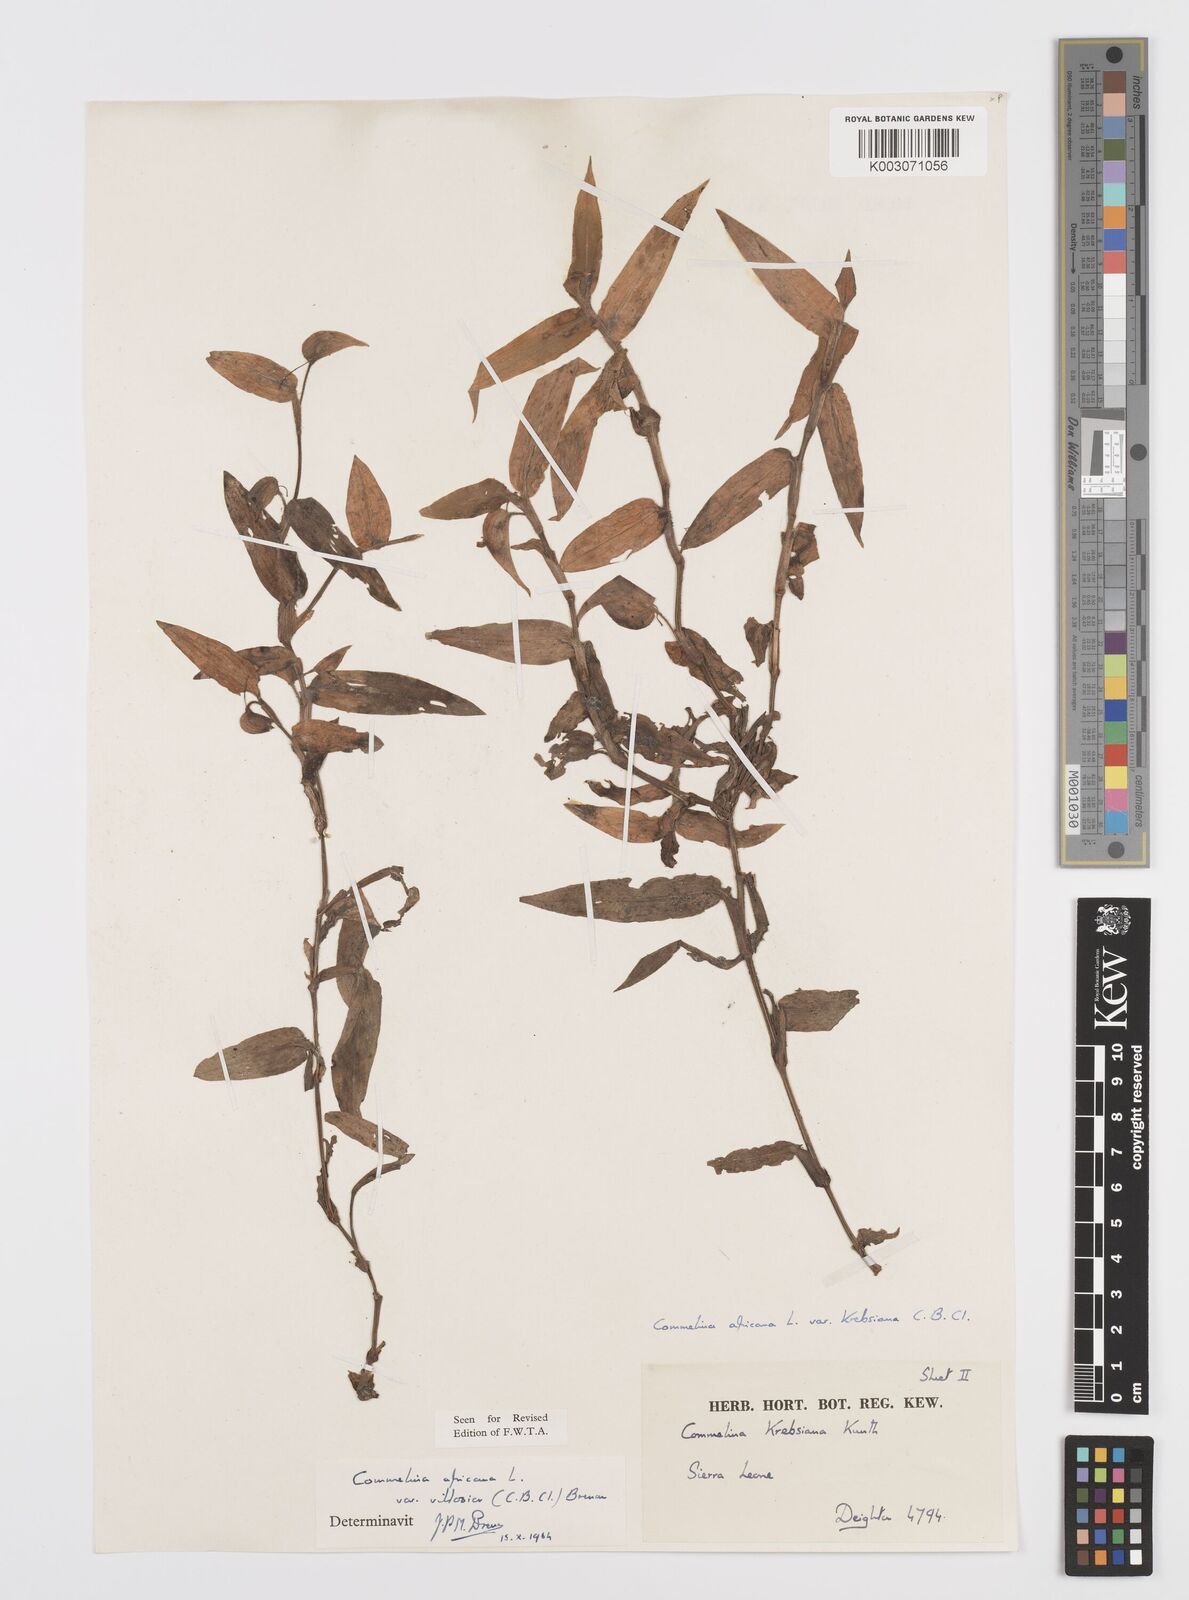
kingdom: Plantae
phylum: Tracheophyta
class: Liliopsida
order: Commelinales
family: Commelinaceae
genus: Commelina
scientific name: Commelina africana
